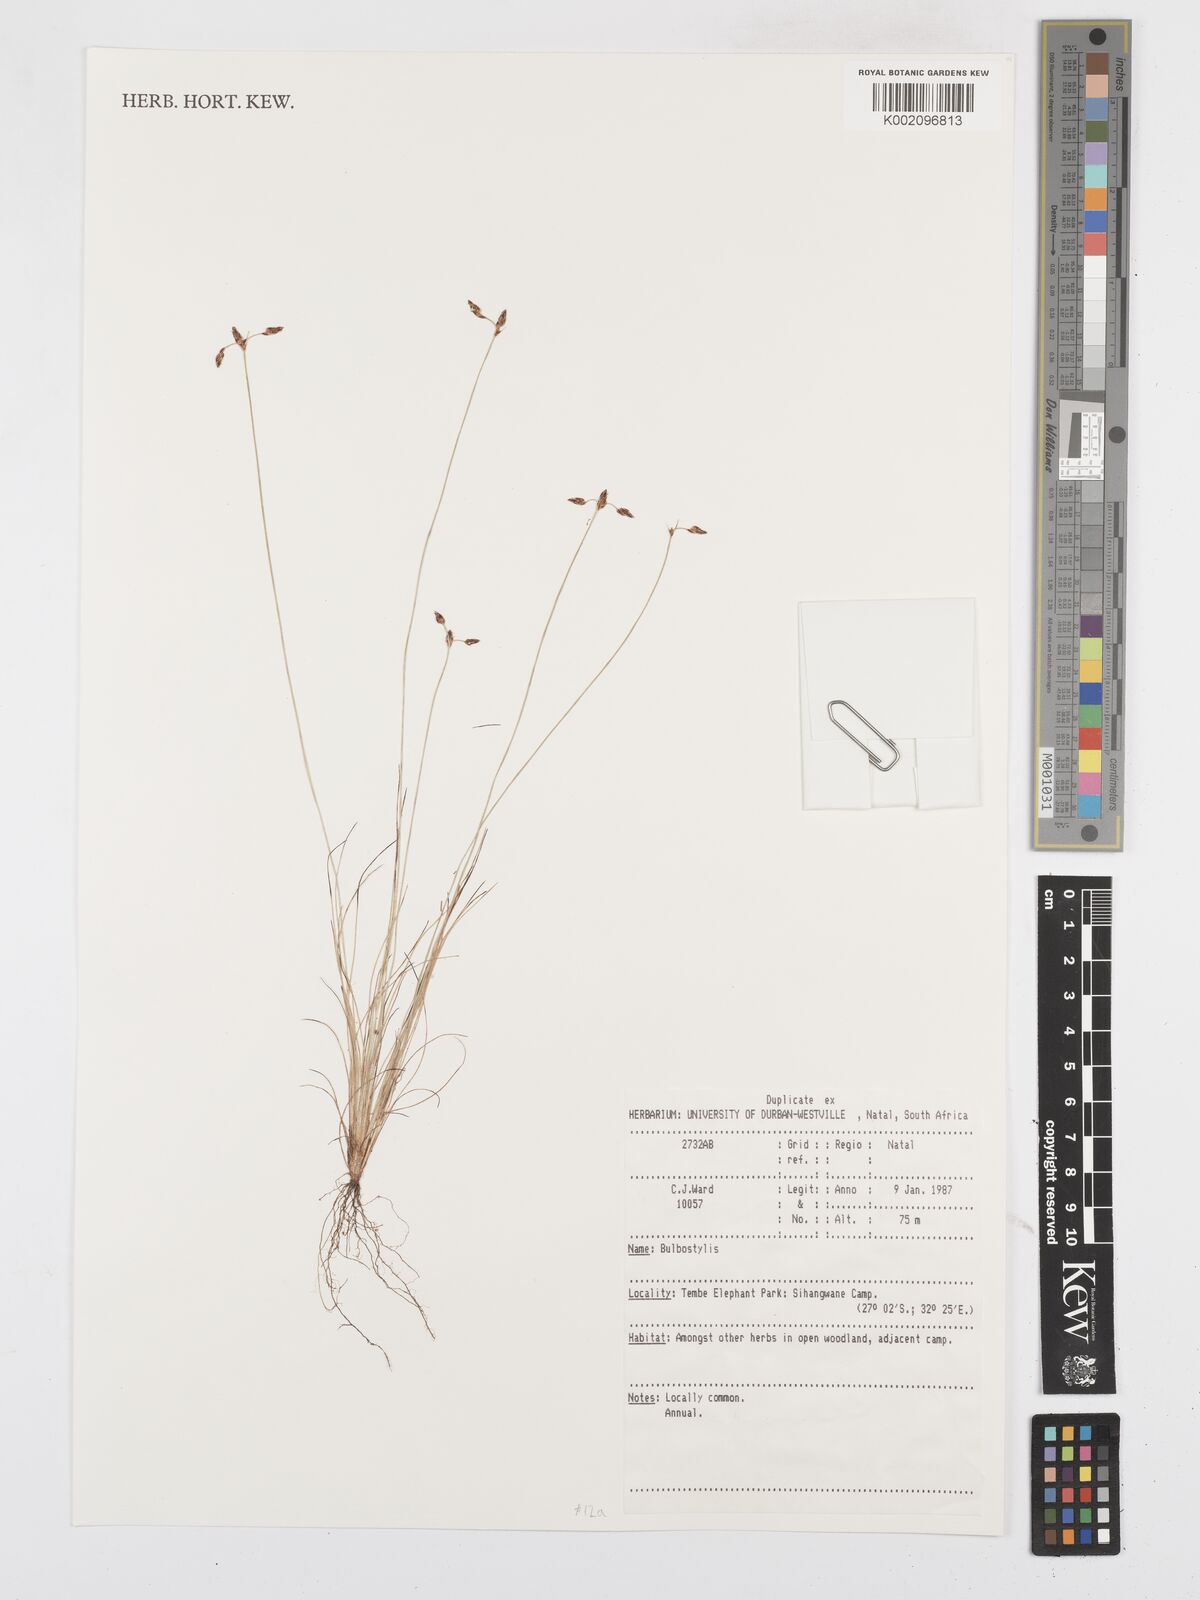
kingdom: Plantae
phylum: Tracheophyta
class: Liliopsida
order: Poales
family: Cyperaceae
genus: Bulbostylis
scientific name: Bulbostylis
